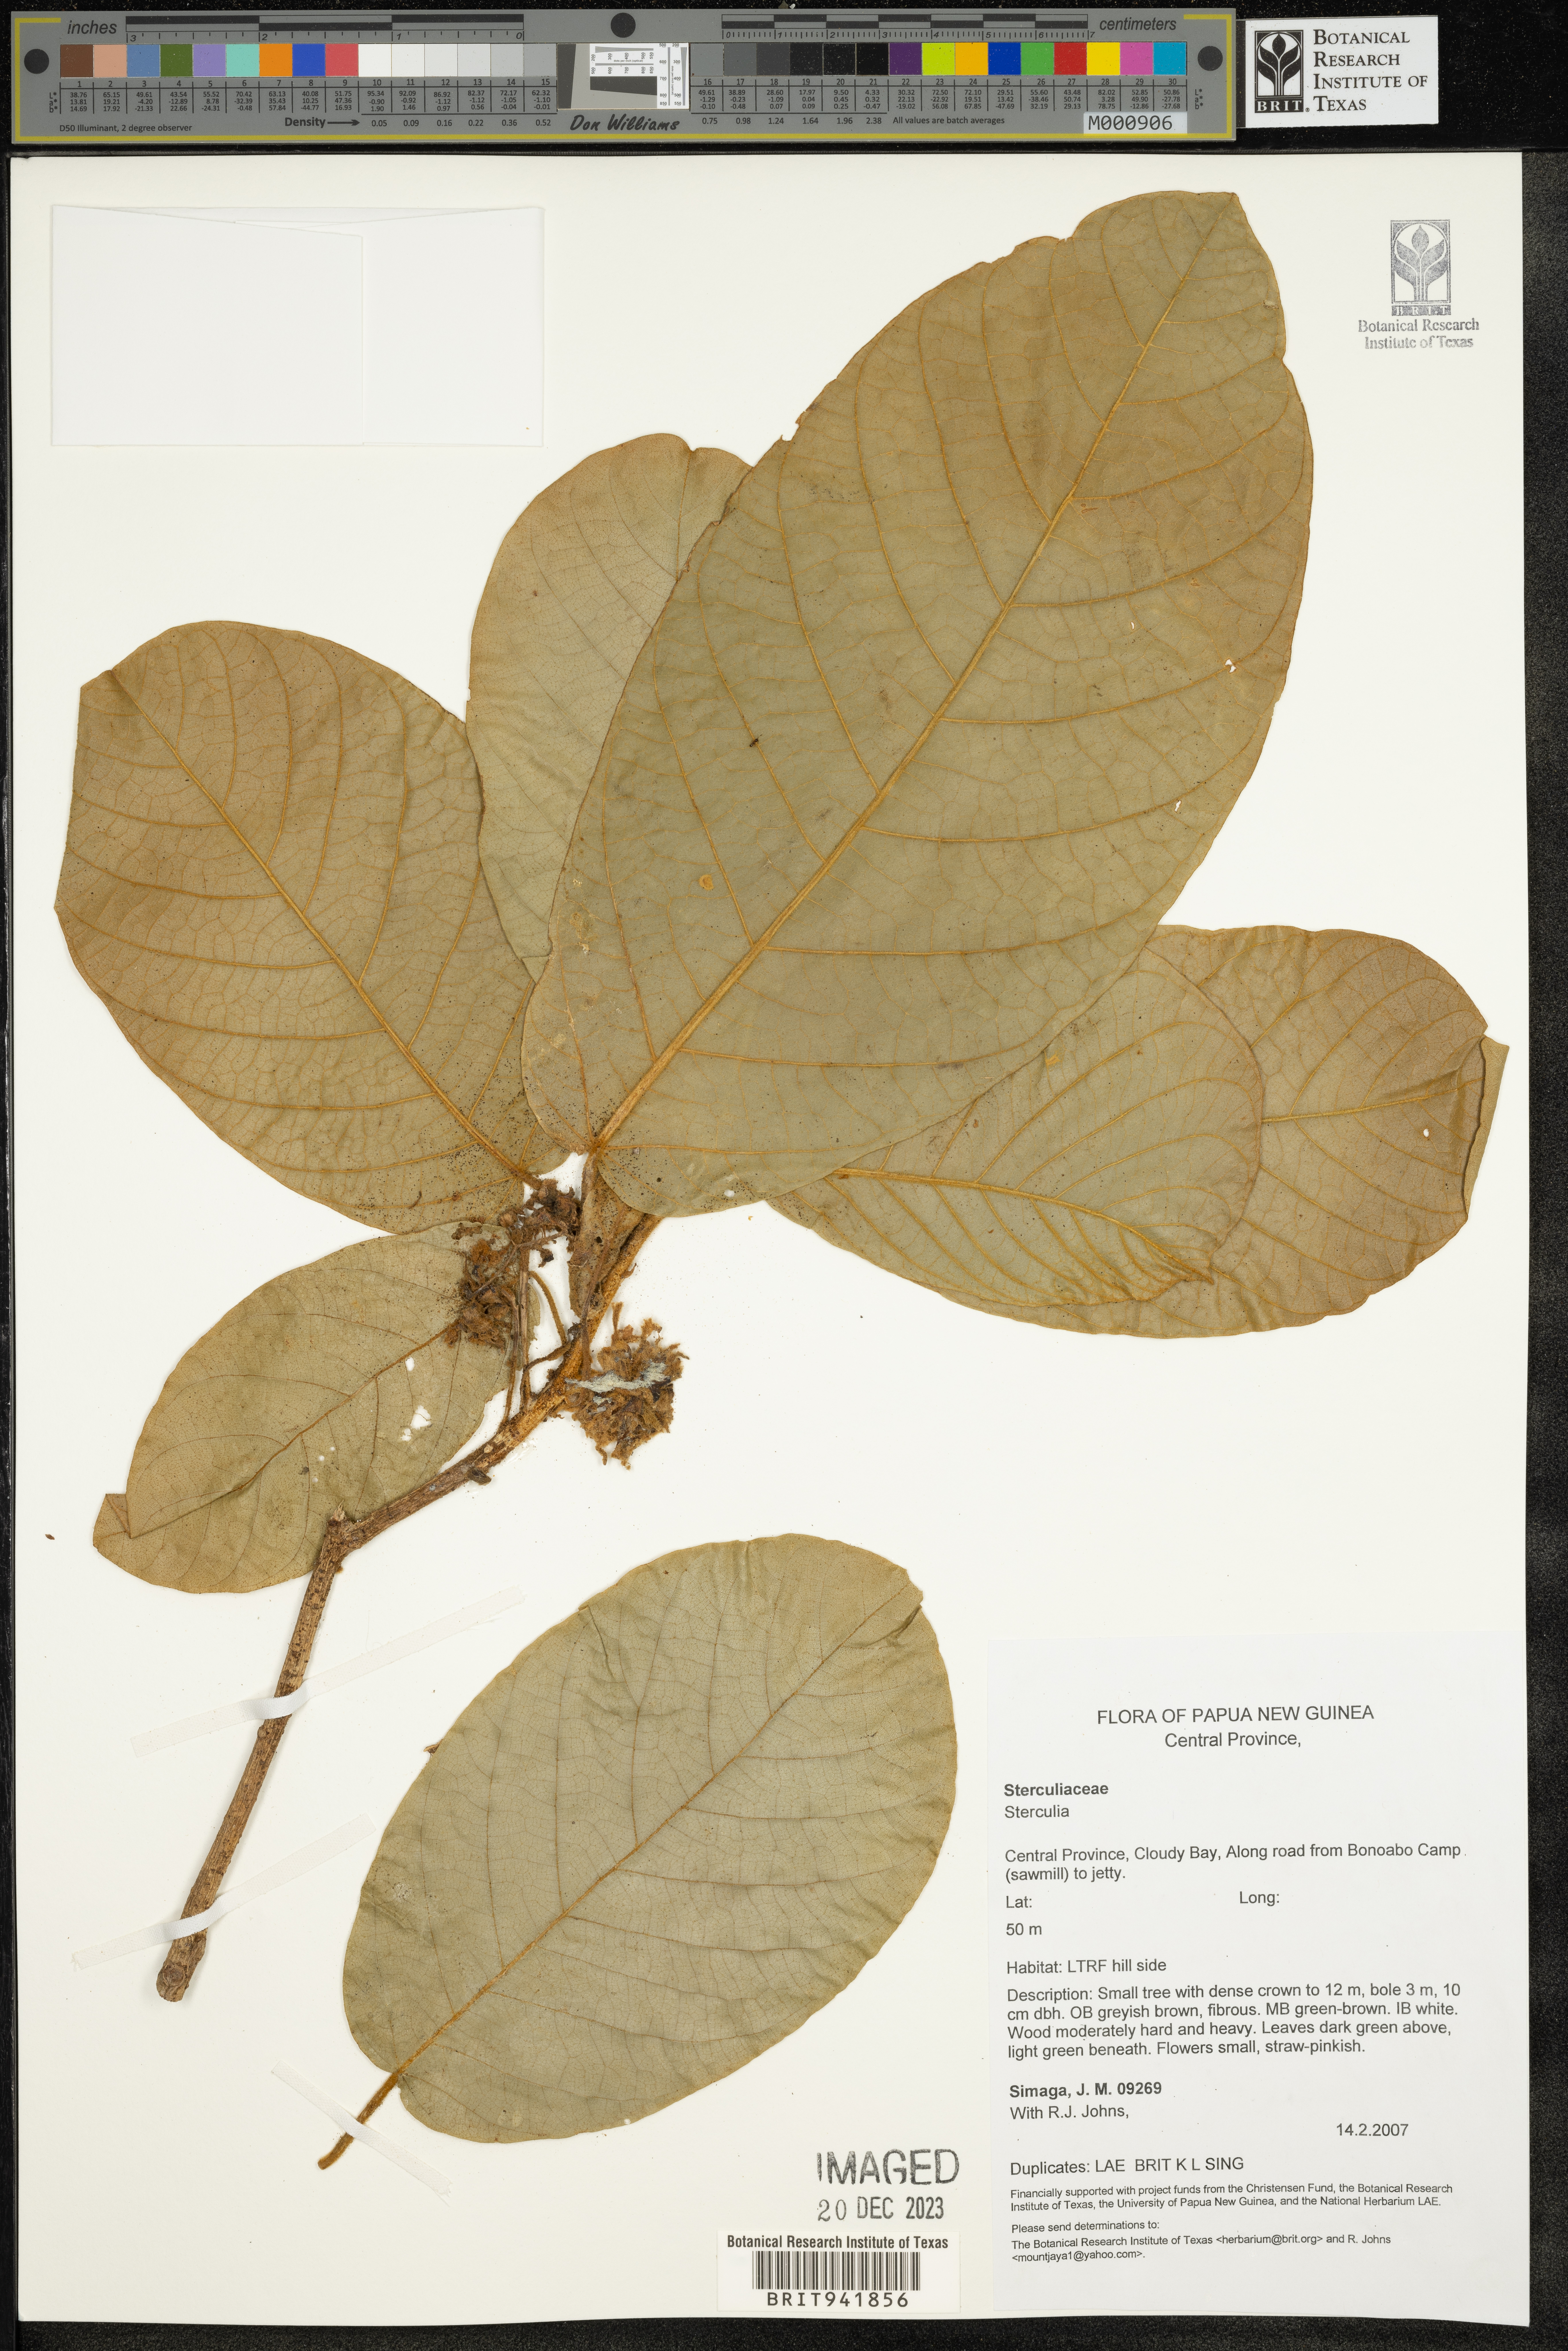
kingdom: Plantae
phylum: Tracheophyta
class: Magnoliopsida
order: Malvales
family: Malvaceae
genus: Sterculia
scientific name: Sterculia
